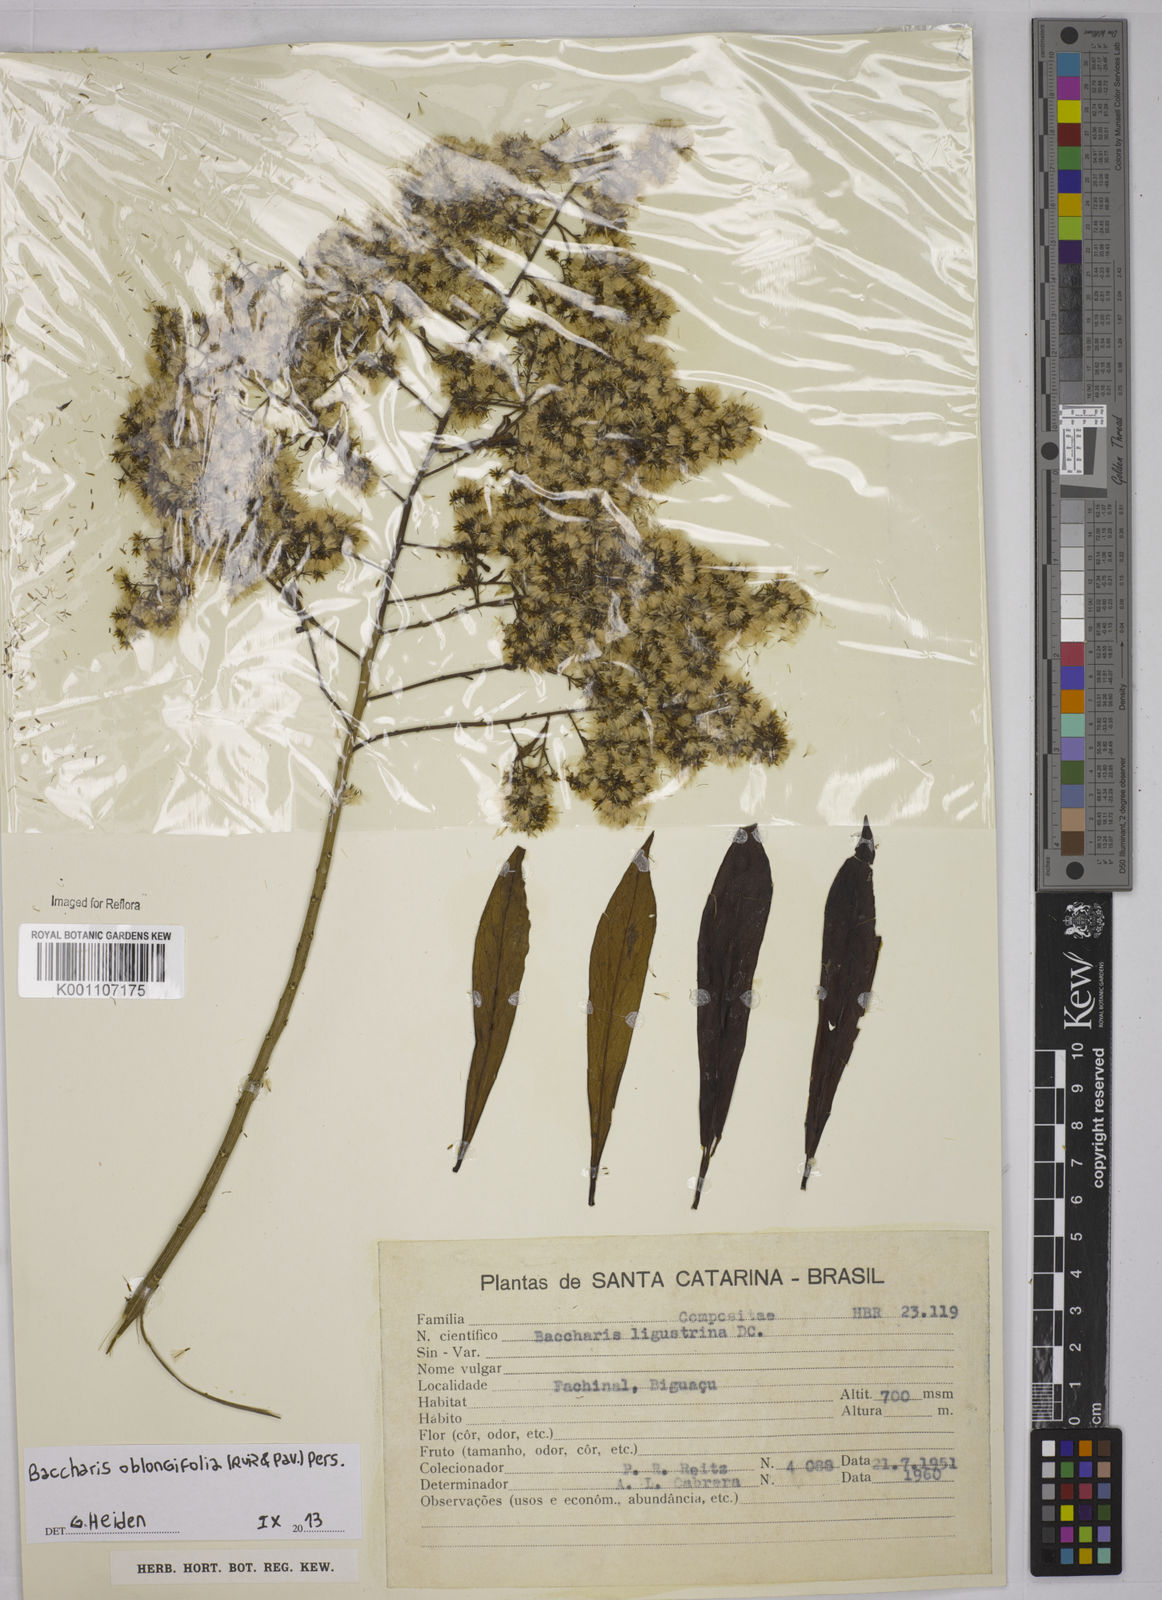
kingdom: Plantae
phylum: Tracheophyta
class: Magnoliopsida
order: Asterales
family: Asteraceae
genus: Baccharis
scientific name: Baccharis oblongifolia
